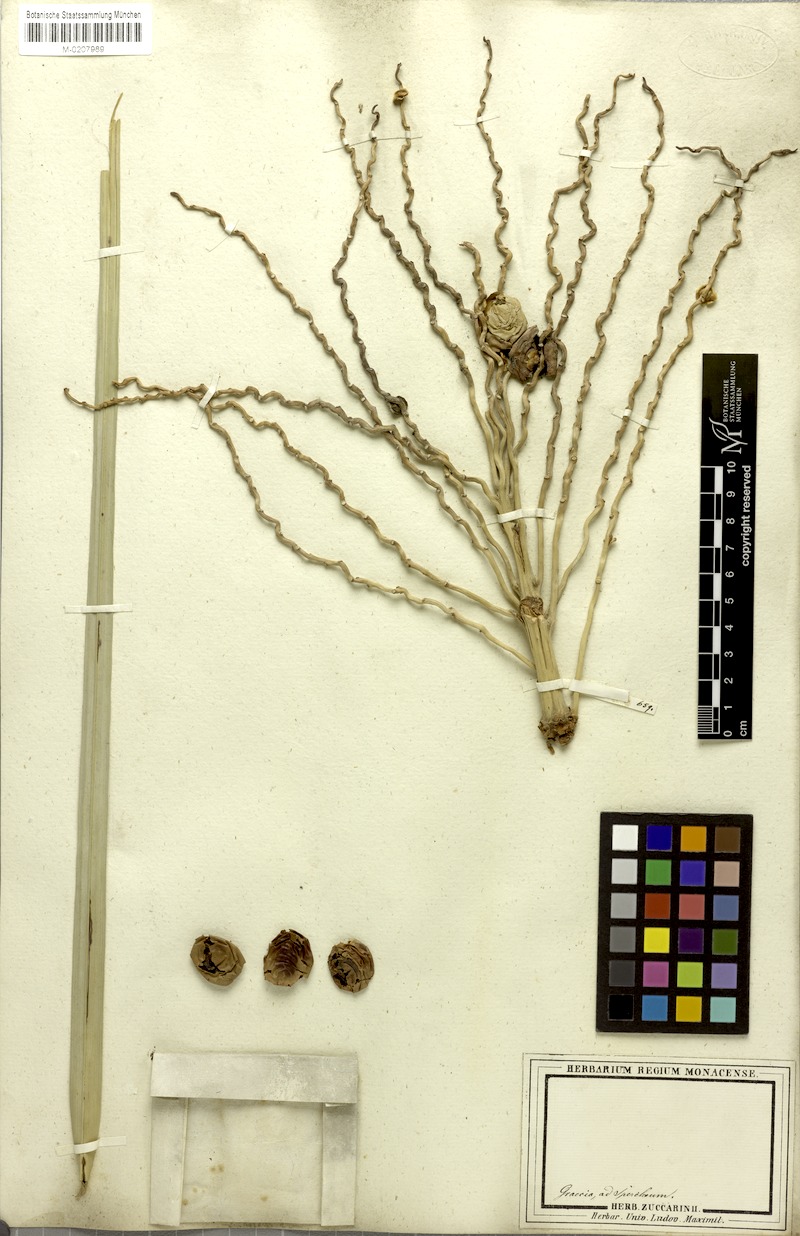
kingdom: Plantae
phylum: Tracheophyta
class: Liliopsida
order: Arecales
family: Arecaceae
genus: Phoenix
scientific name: Phoenix dactylifera
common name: Date palm
